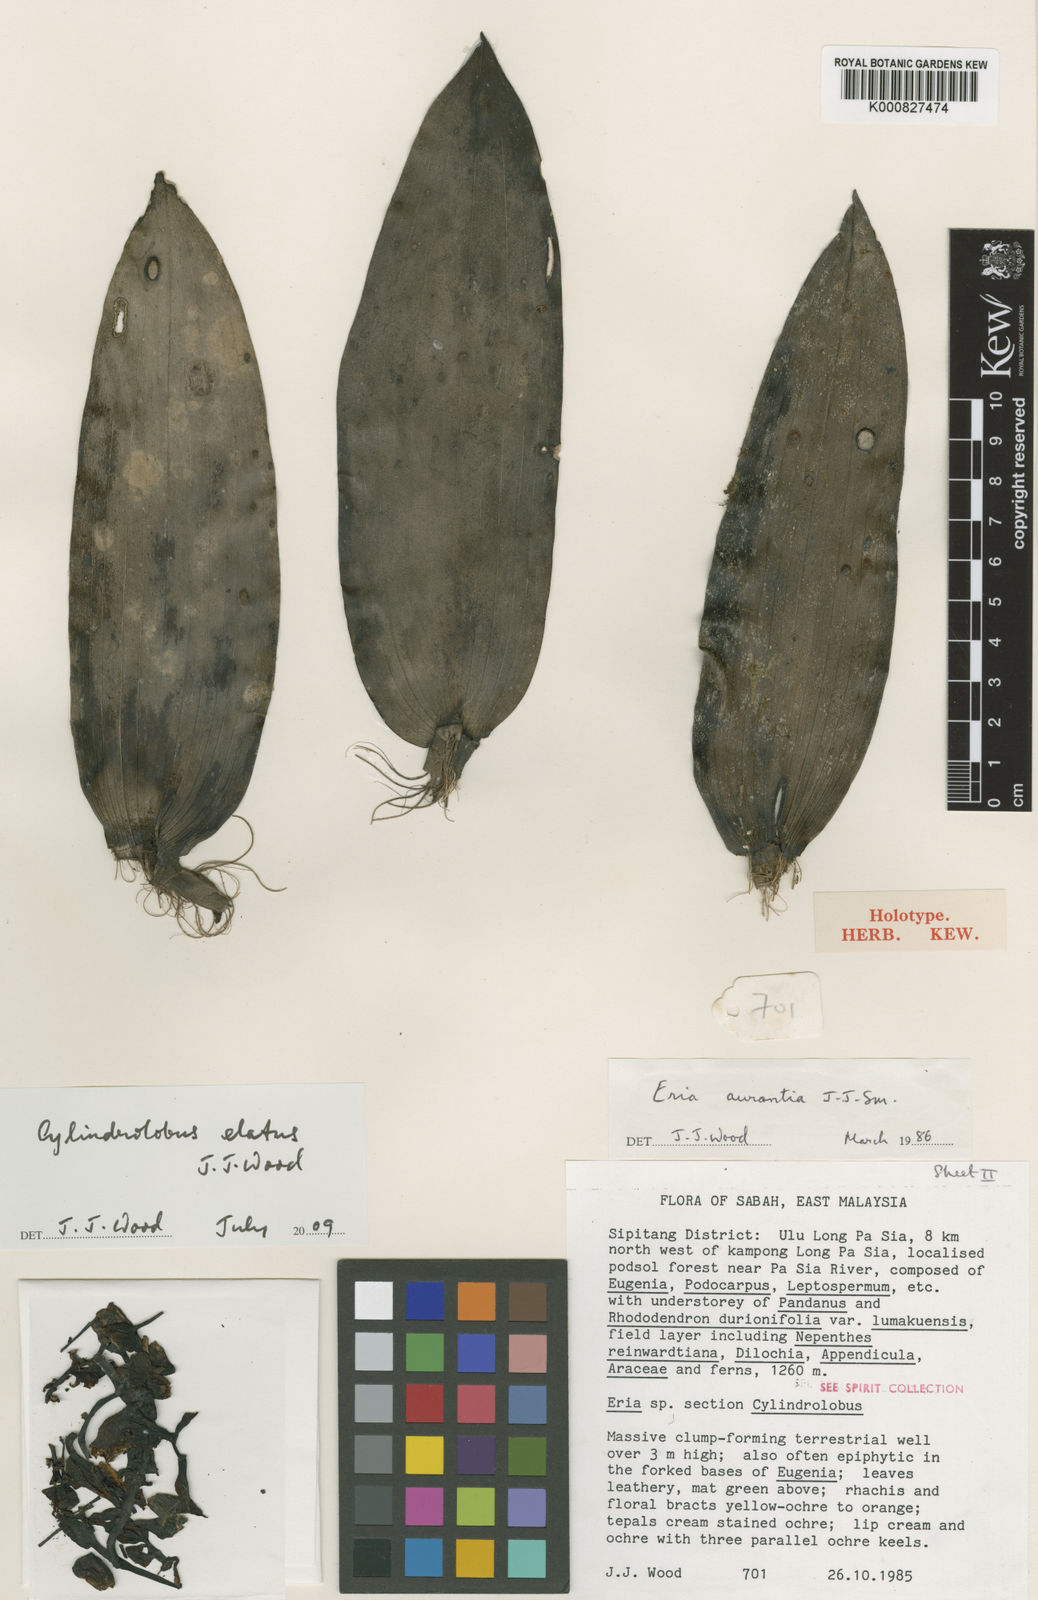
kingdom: Plantae
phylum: Tracheophyta
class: Liliopsida
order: Asparagales
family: Orchidaceae
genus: Cylindrolobus
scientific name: Cylindrolobus elatus
